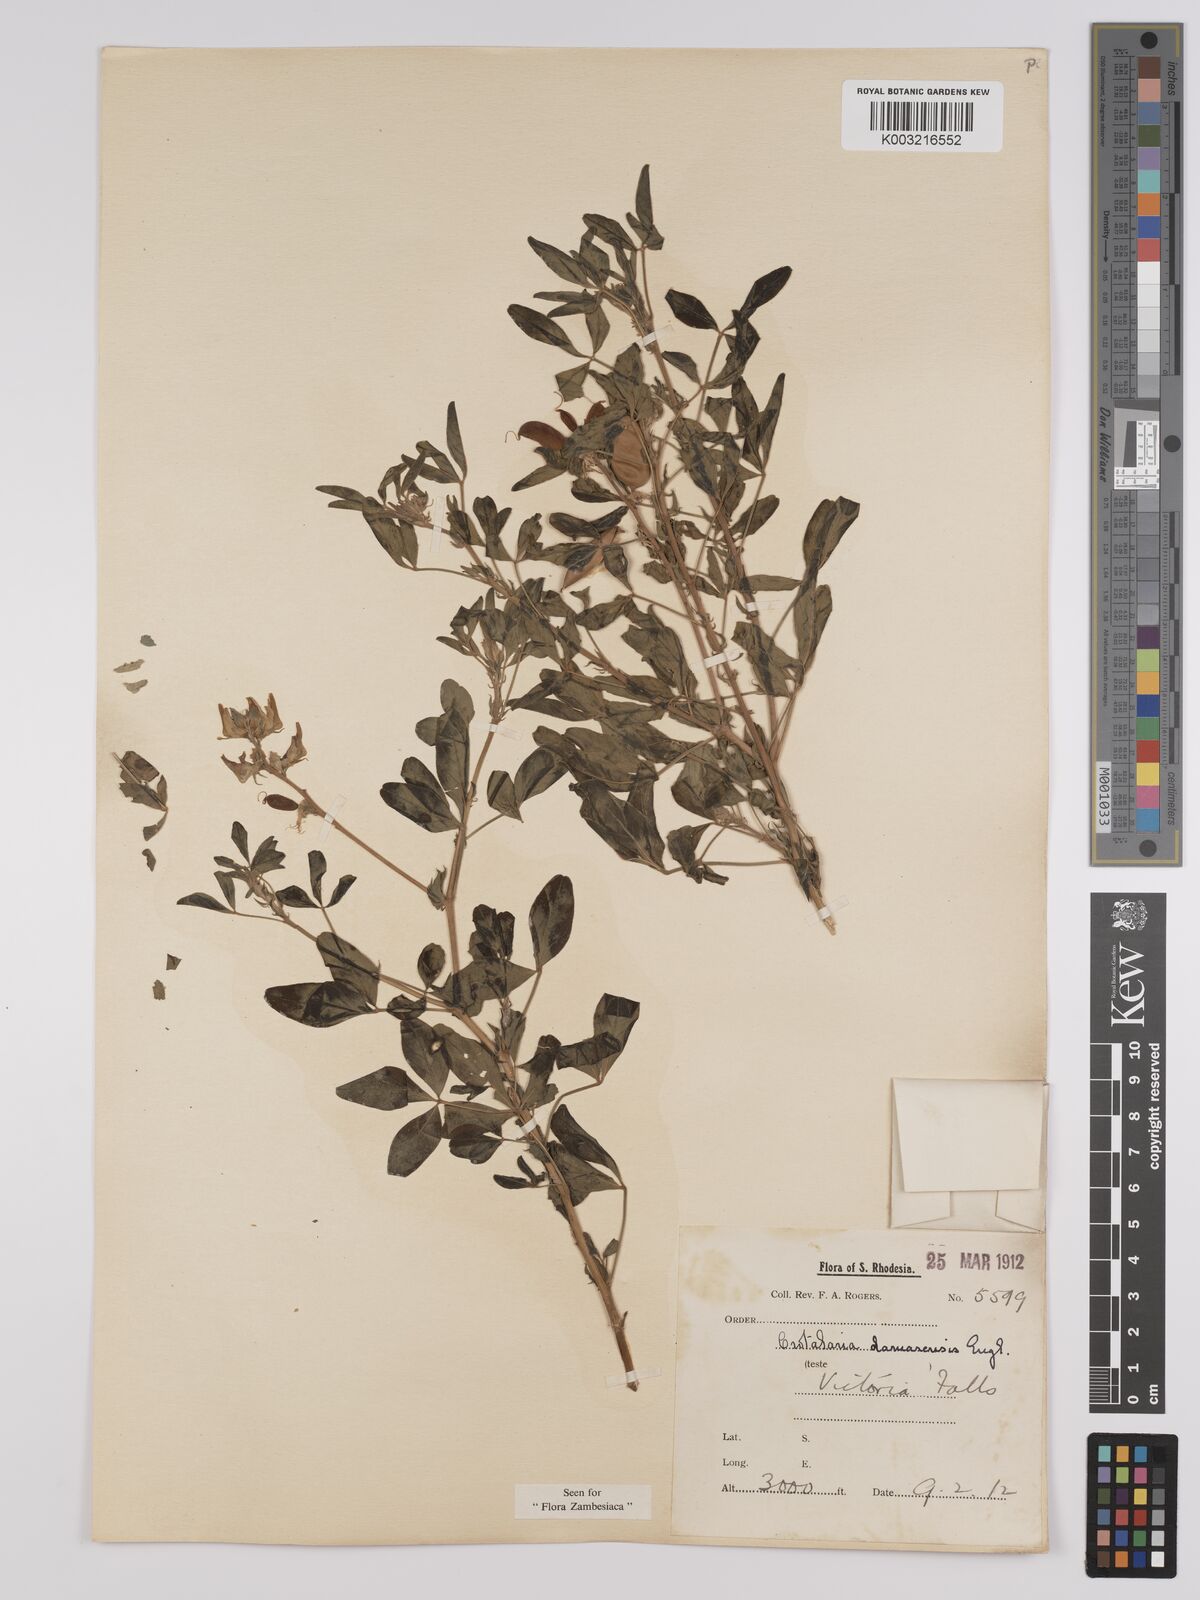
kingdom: Plantae
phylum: Tracheophyta
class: Magnoliopsida
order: Fabales
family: Fabaceae
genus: Crotalaria
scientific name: Crotalaria damarensis
